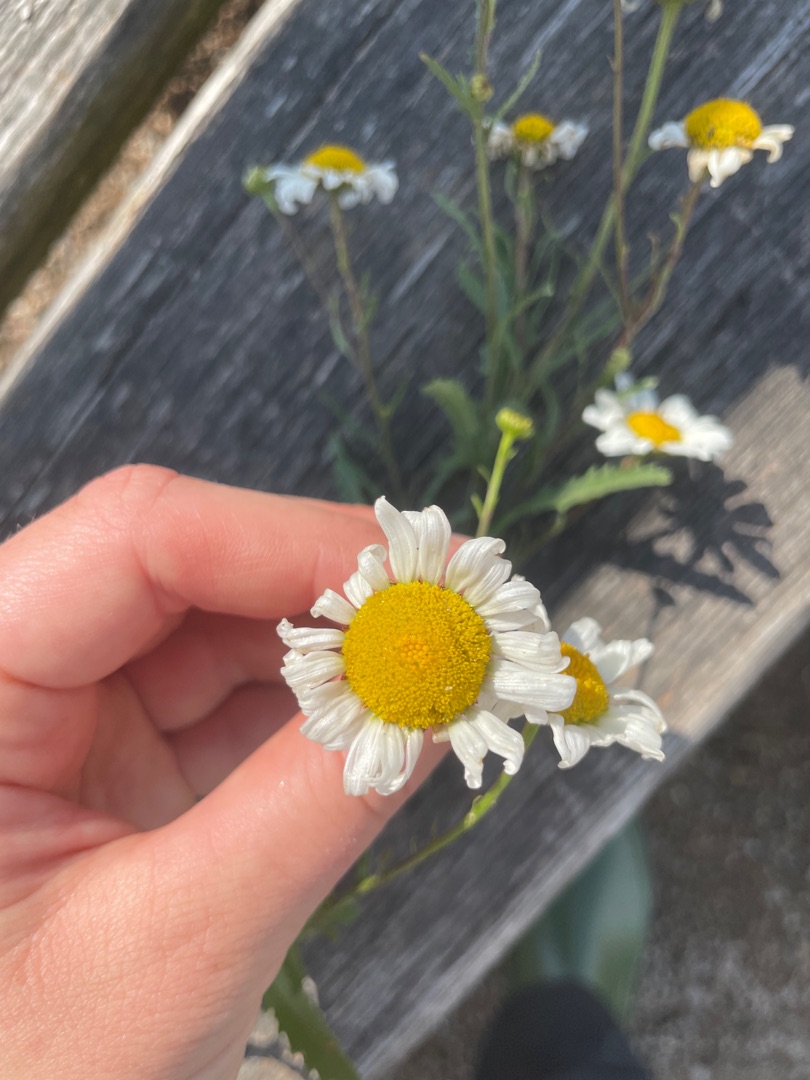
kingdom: Plantae
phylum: Tracheophyta
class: Magnoliopsida
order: Asterales
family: Asteraceae
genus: Leucanthemum
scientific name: Leucanthemum vulgare
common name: Hvid okseøje
